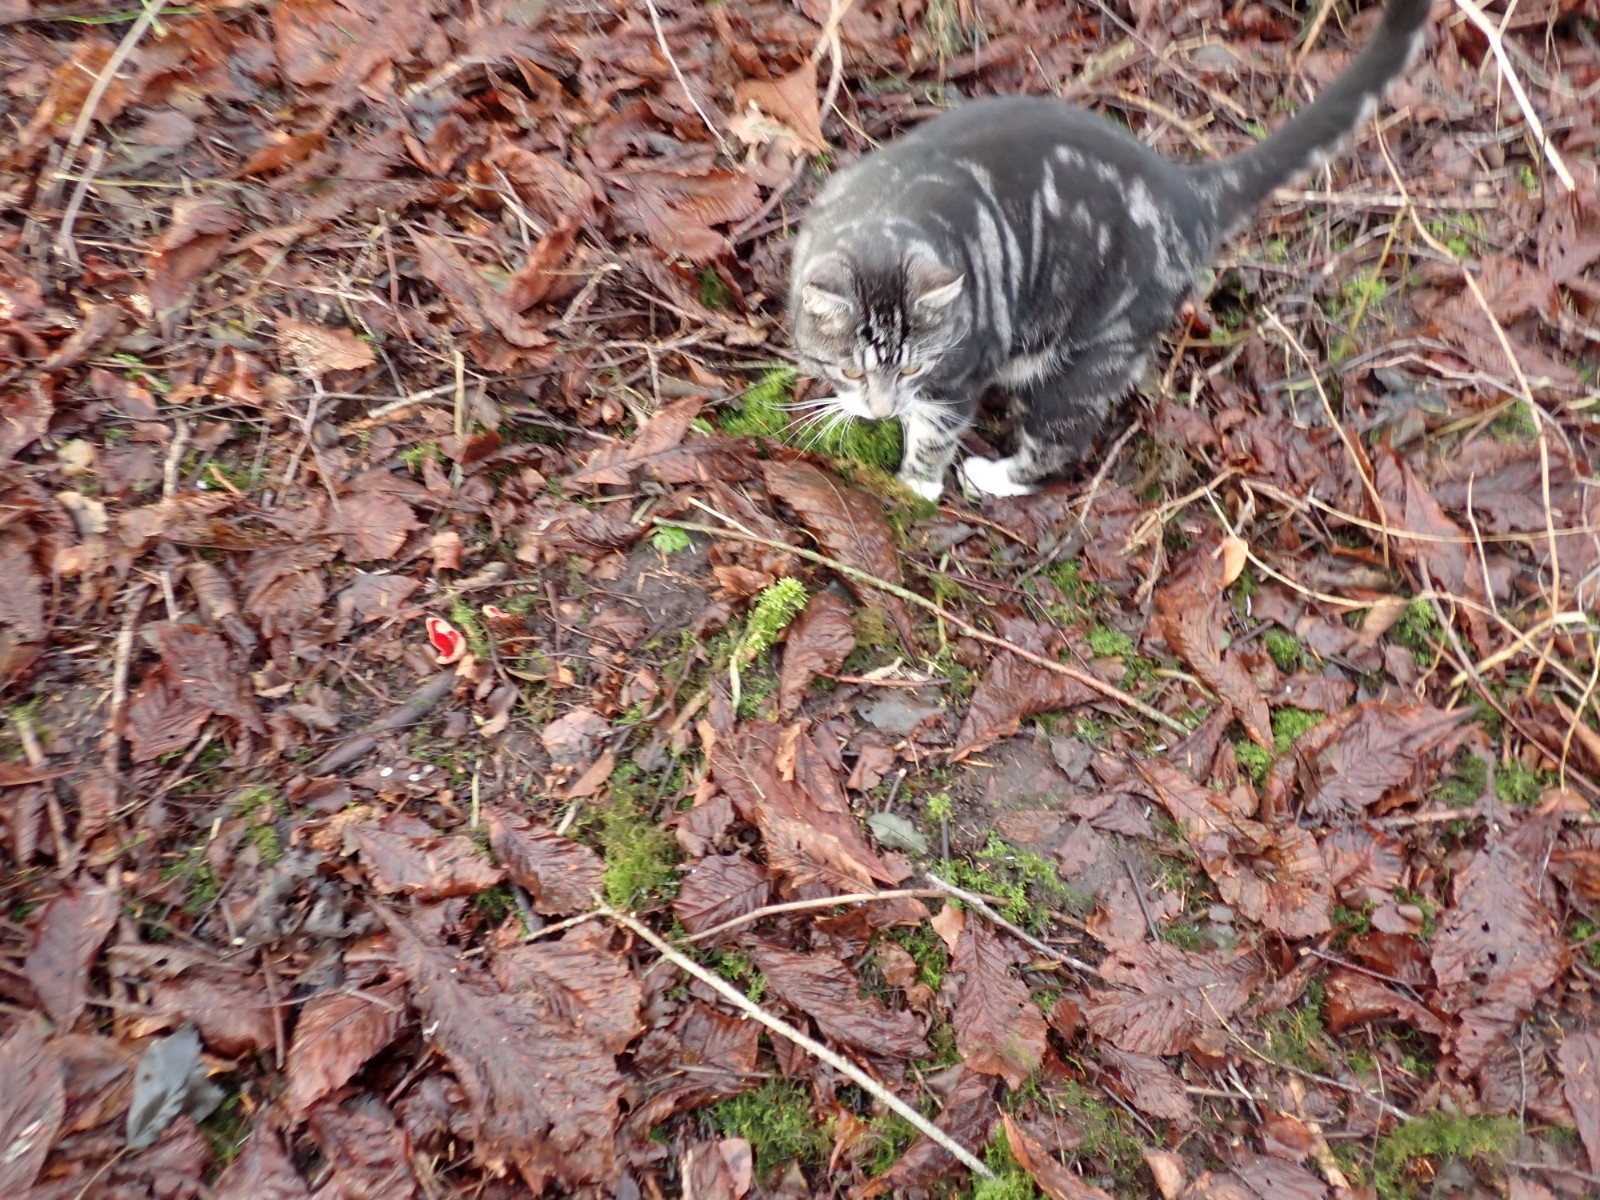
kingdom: Fungi
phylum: Ascomycota
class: Pezizomycetes
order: Pezizales
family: Sarcoscyphaceae
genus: Sarcoscypha
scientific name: Sarcoscypha austriaca
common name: krølhåret pragtbæger
